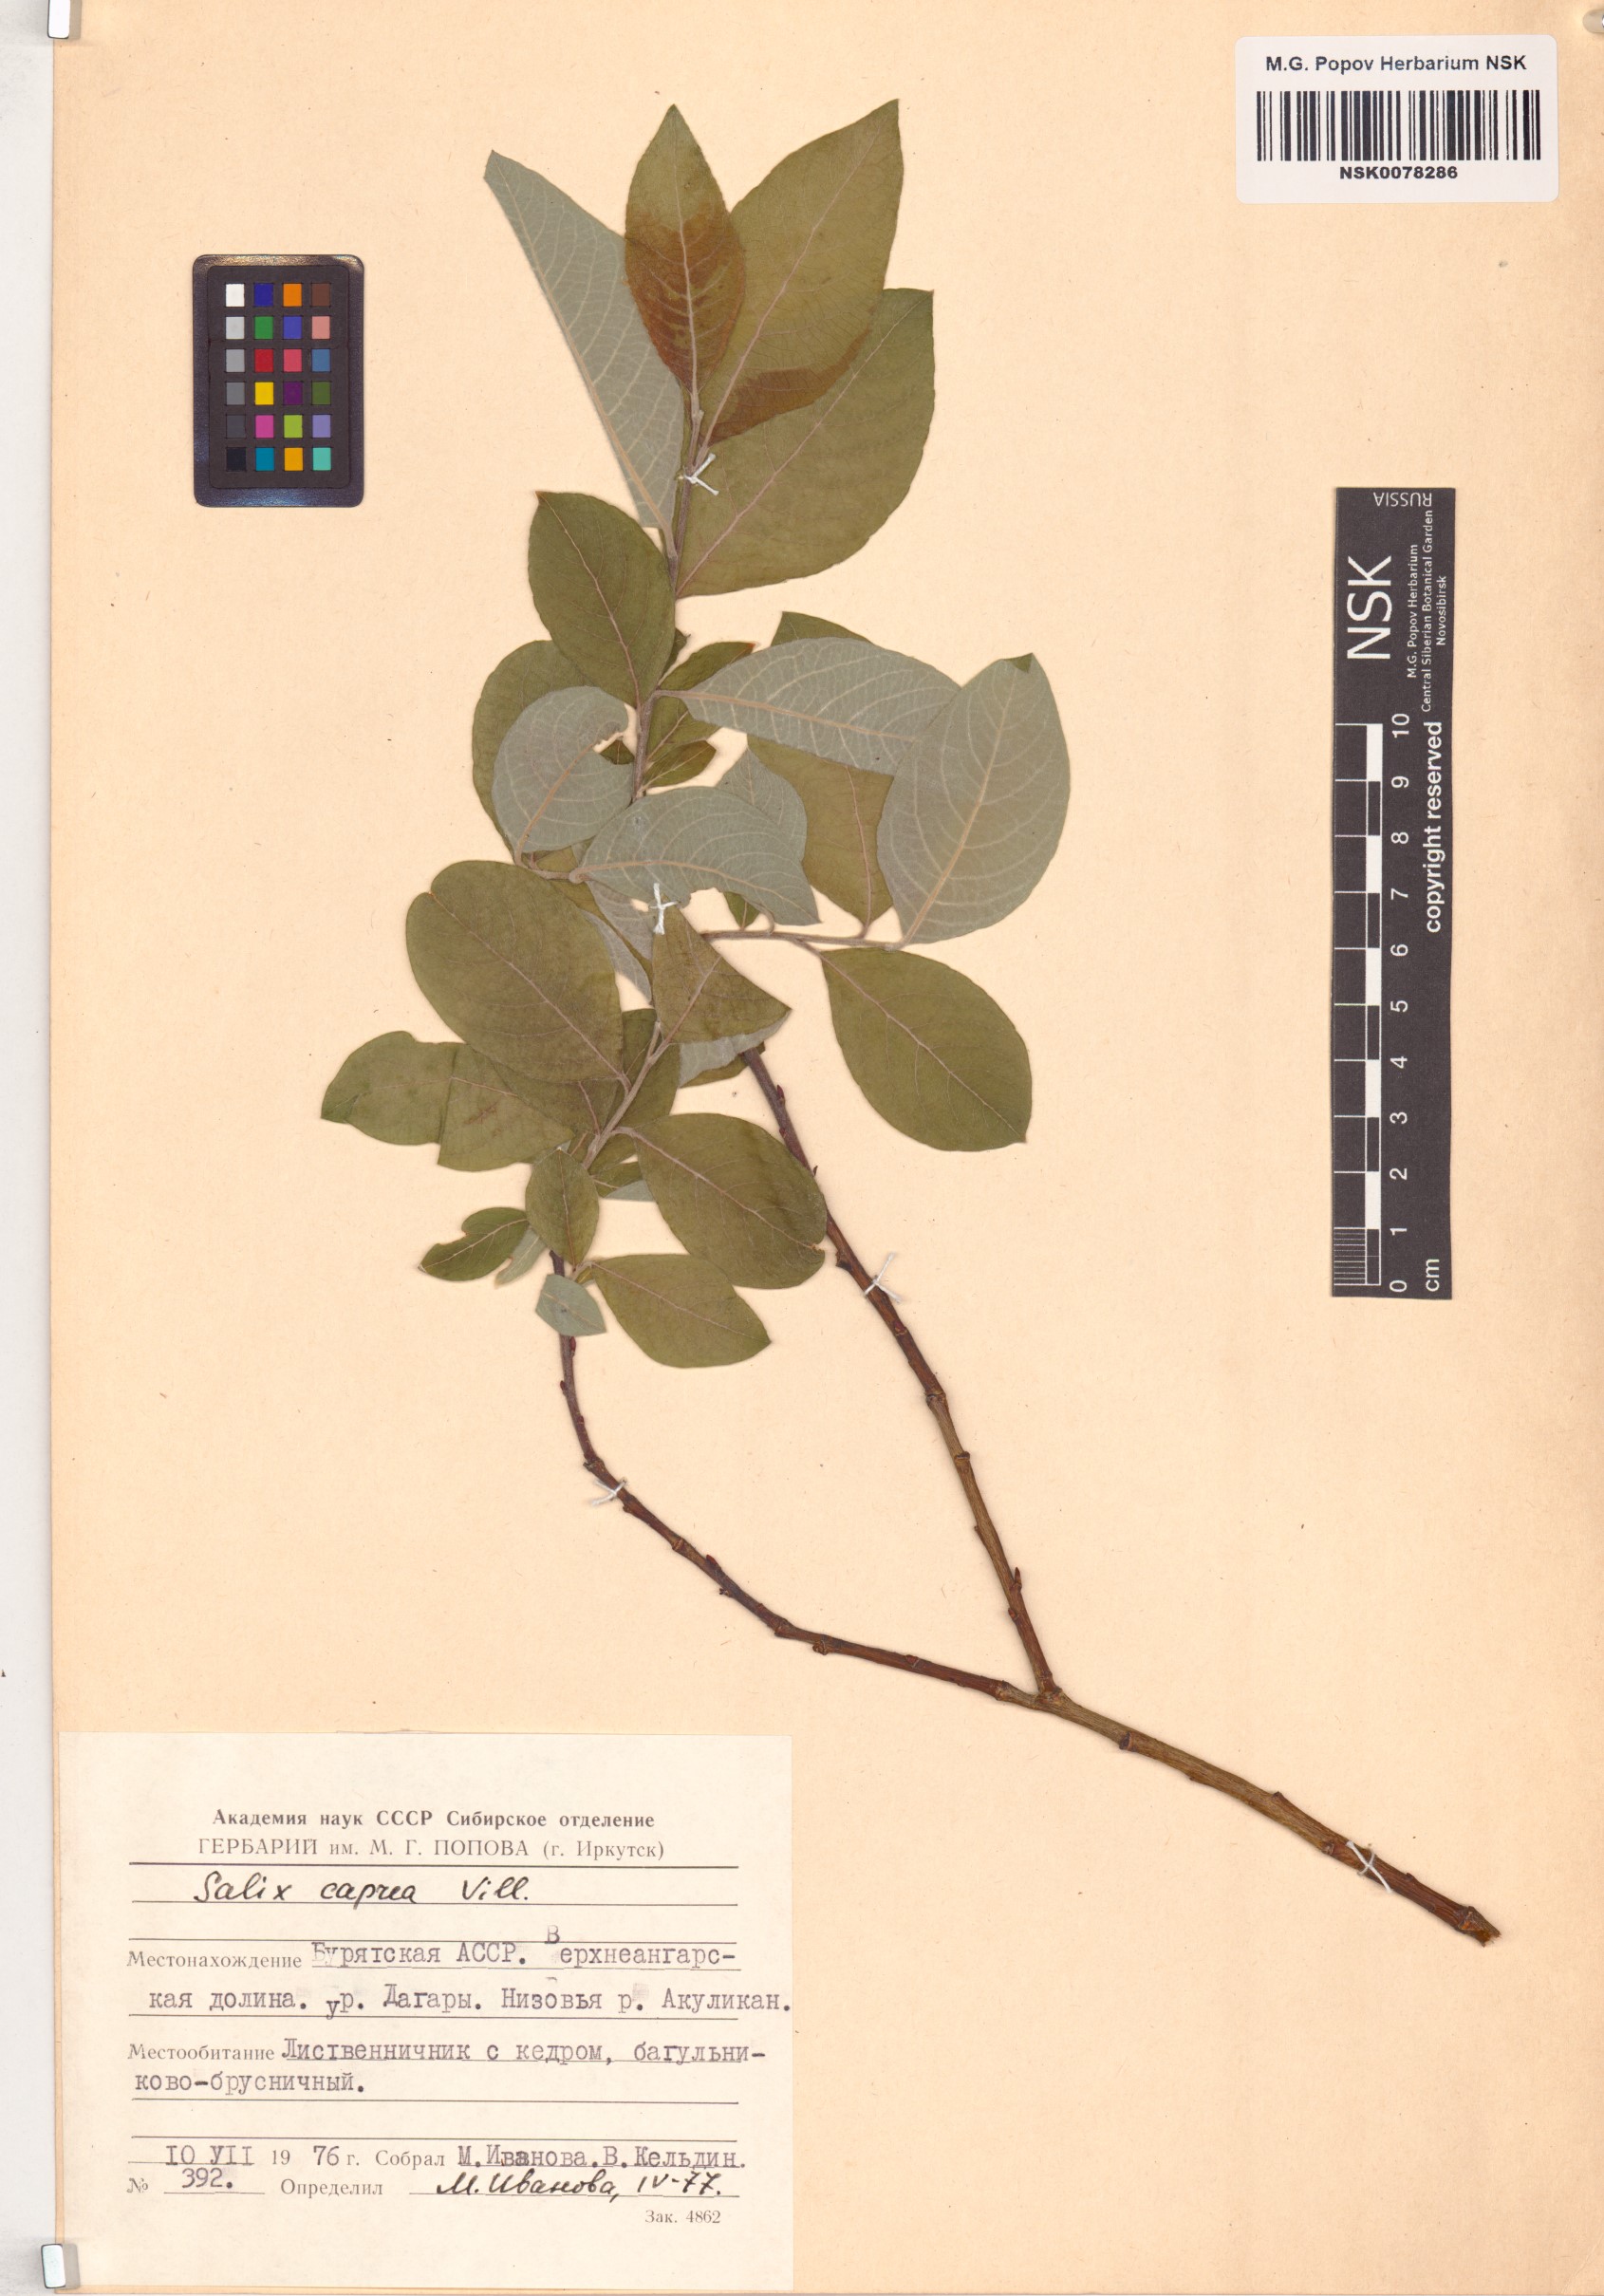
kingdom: Plantae
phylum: Tracheophyta
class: Magnoliopsida
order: Malpighiales
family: Salicaceae
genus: Salix
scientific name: Salix caprea
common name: Goat willow
